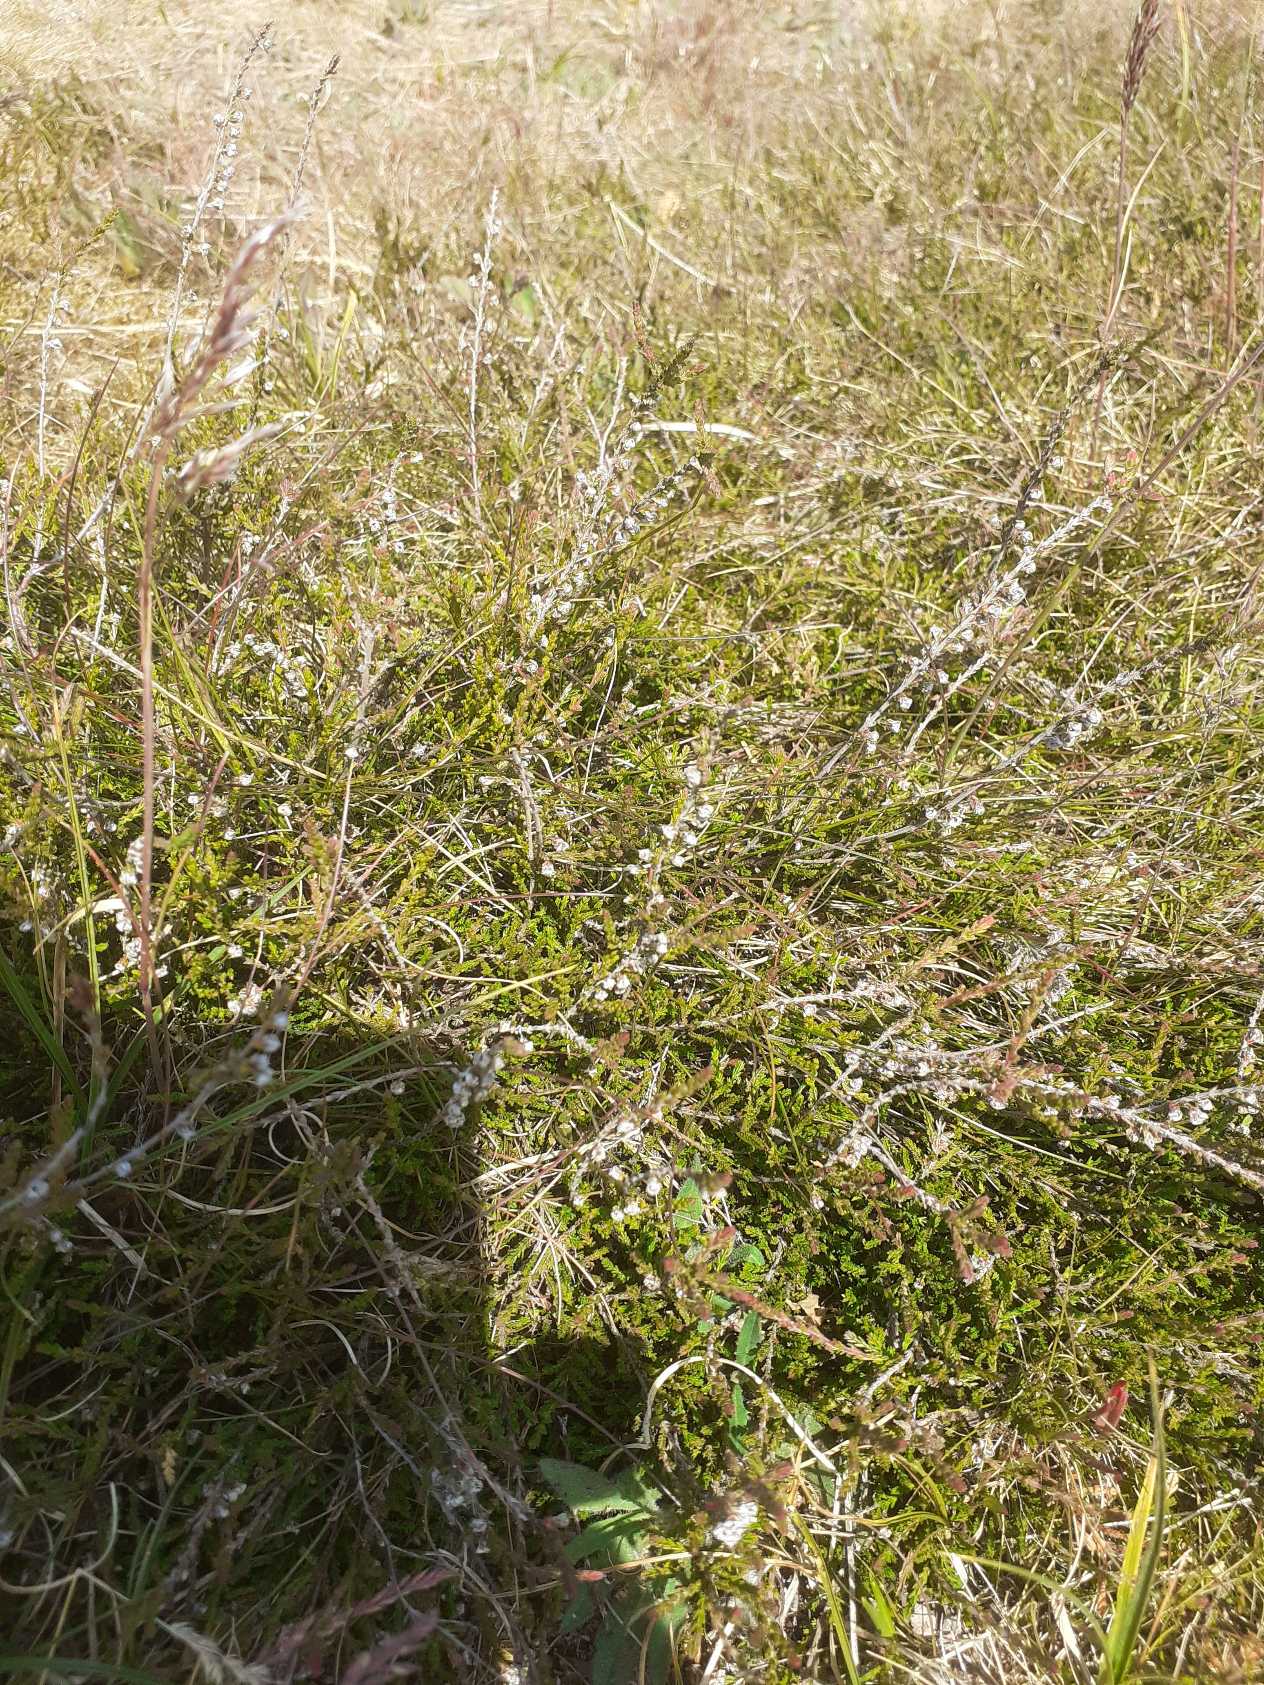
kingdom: Plantae
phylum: Tracheophyta
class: Magnoliopsida
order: Ericales
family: Ericaceae
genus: Calluna
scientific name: Calluna vulgaris
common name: Hedelyng
